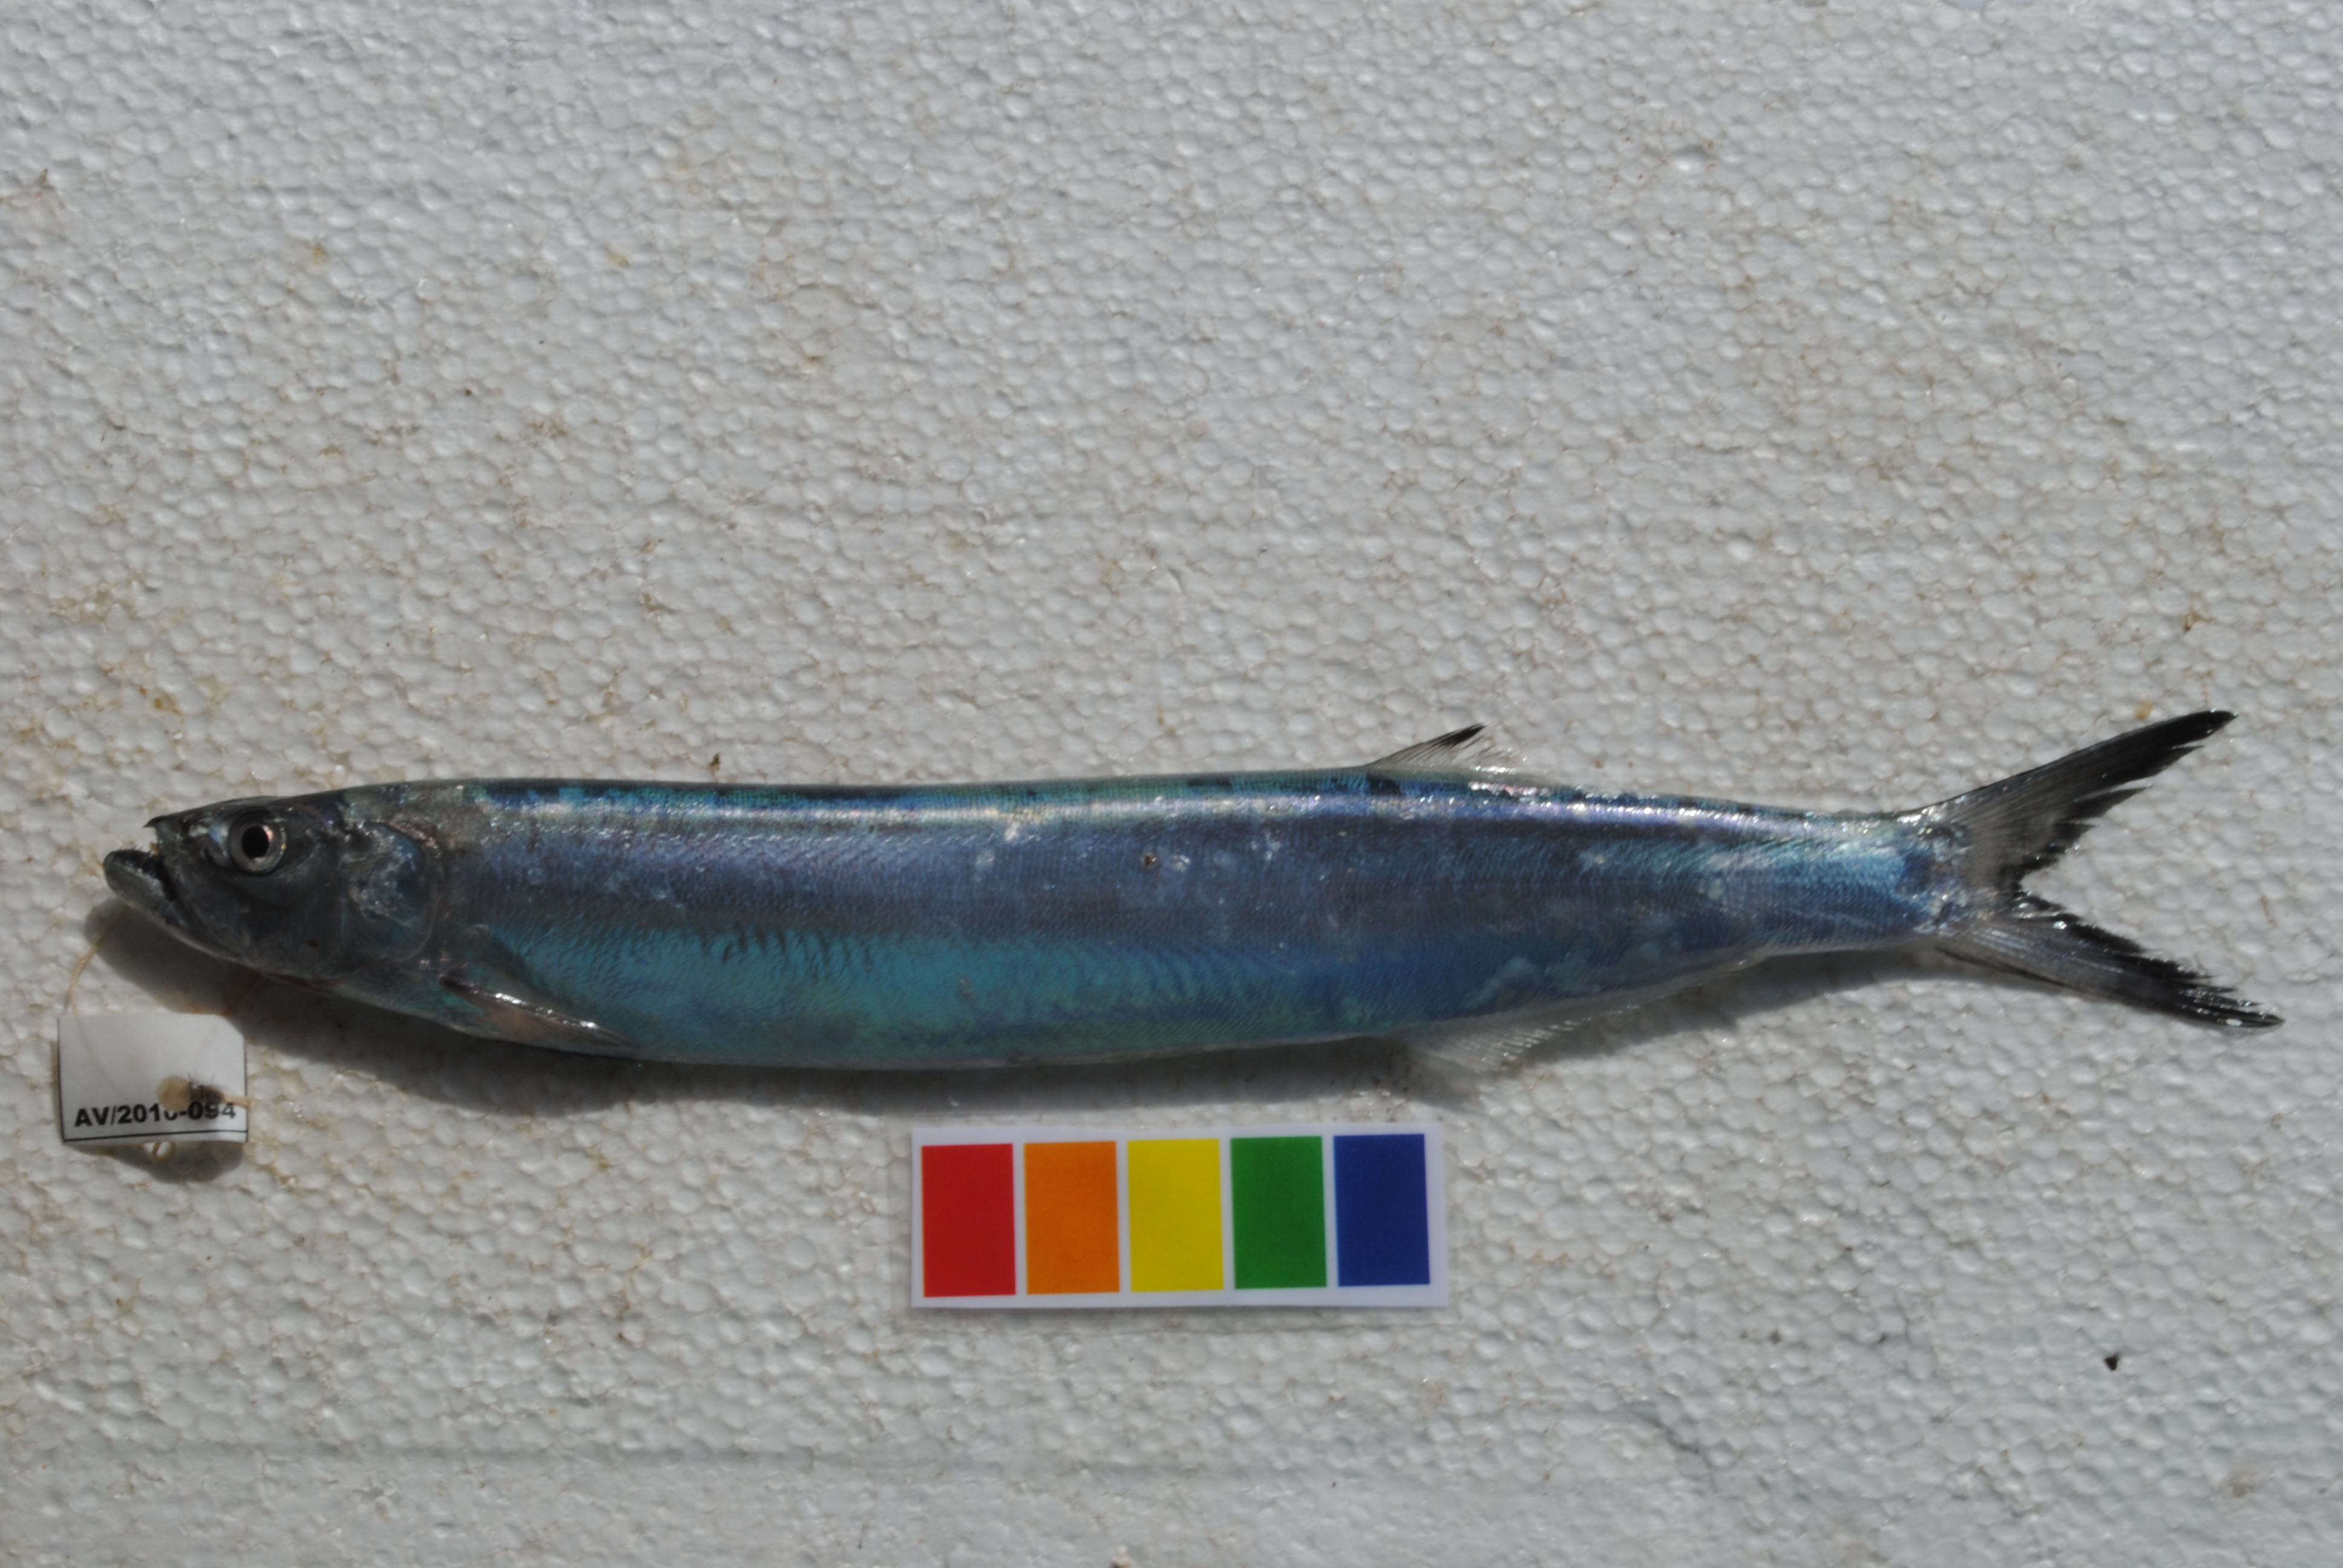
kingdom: Animalia
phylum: Chordata
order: Clupeiformes
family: Chirocentridae
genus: Chirocentrus
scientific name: Chirocentrus dorab
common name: Wolf herring
